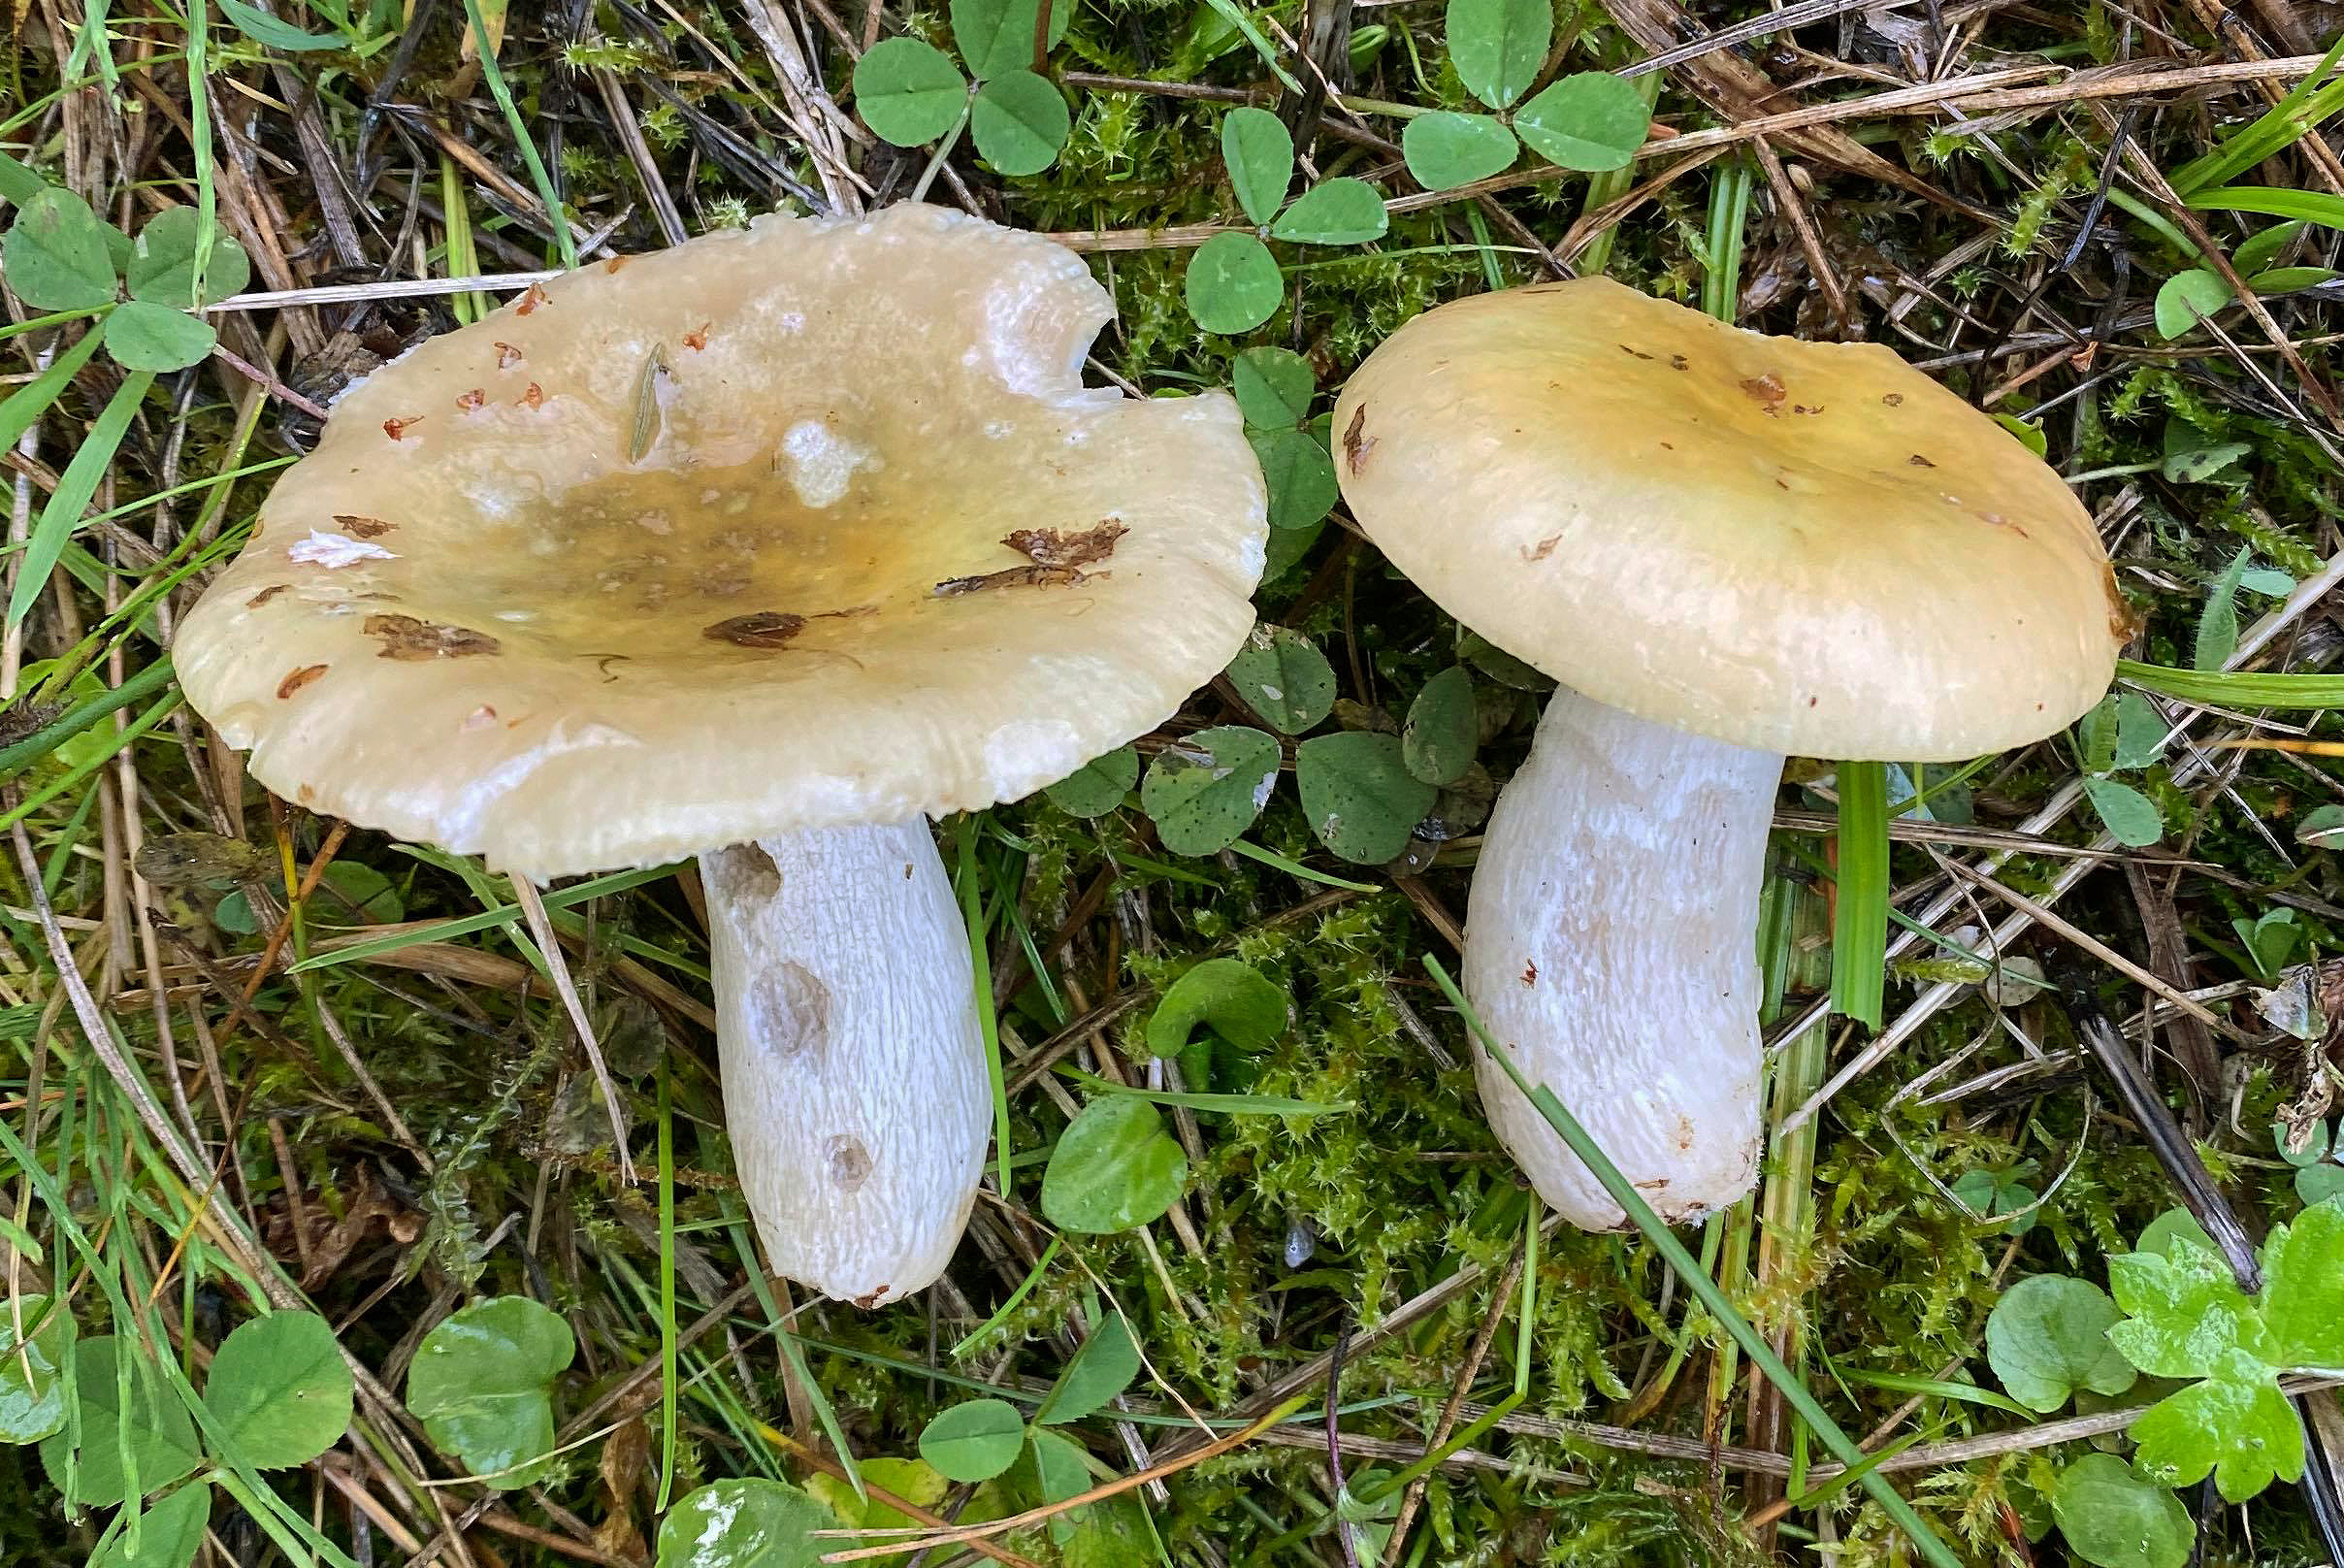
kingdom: Fungi
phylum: Basidiomycota
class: Agaricomycetes
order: Russulales
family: Russulaceae
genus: Russula
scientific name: Russula citrinochlora
